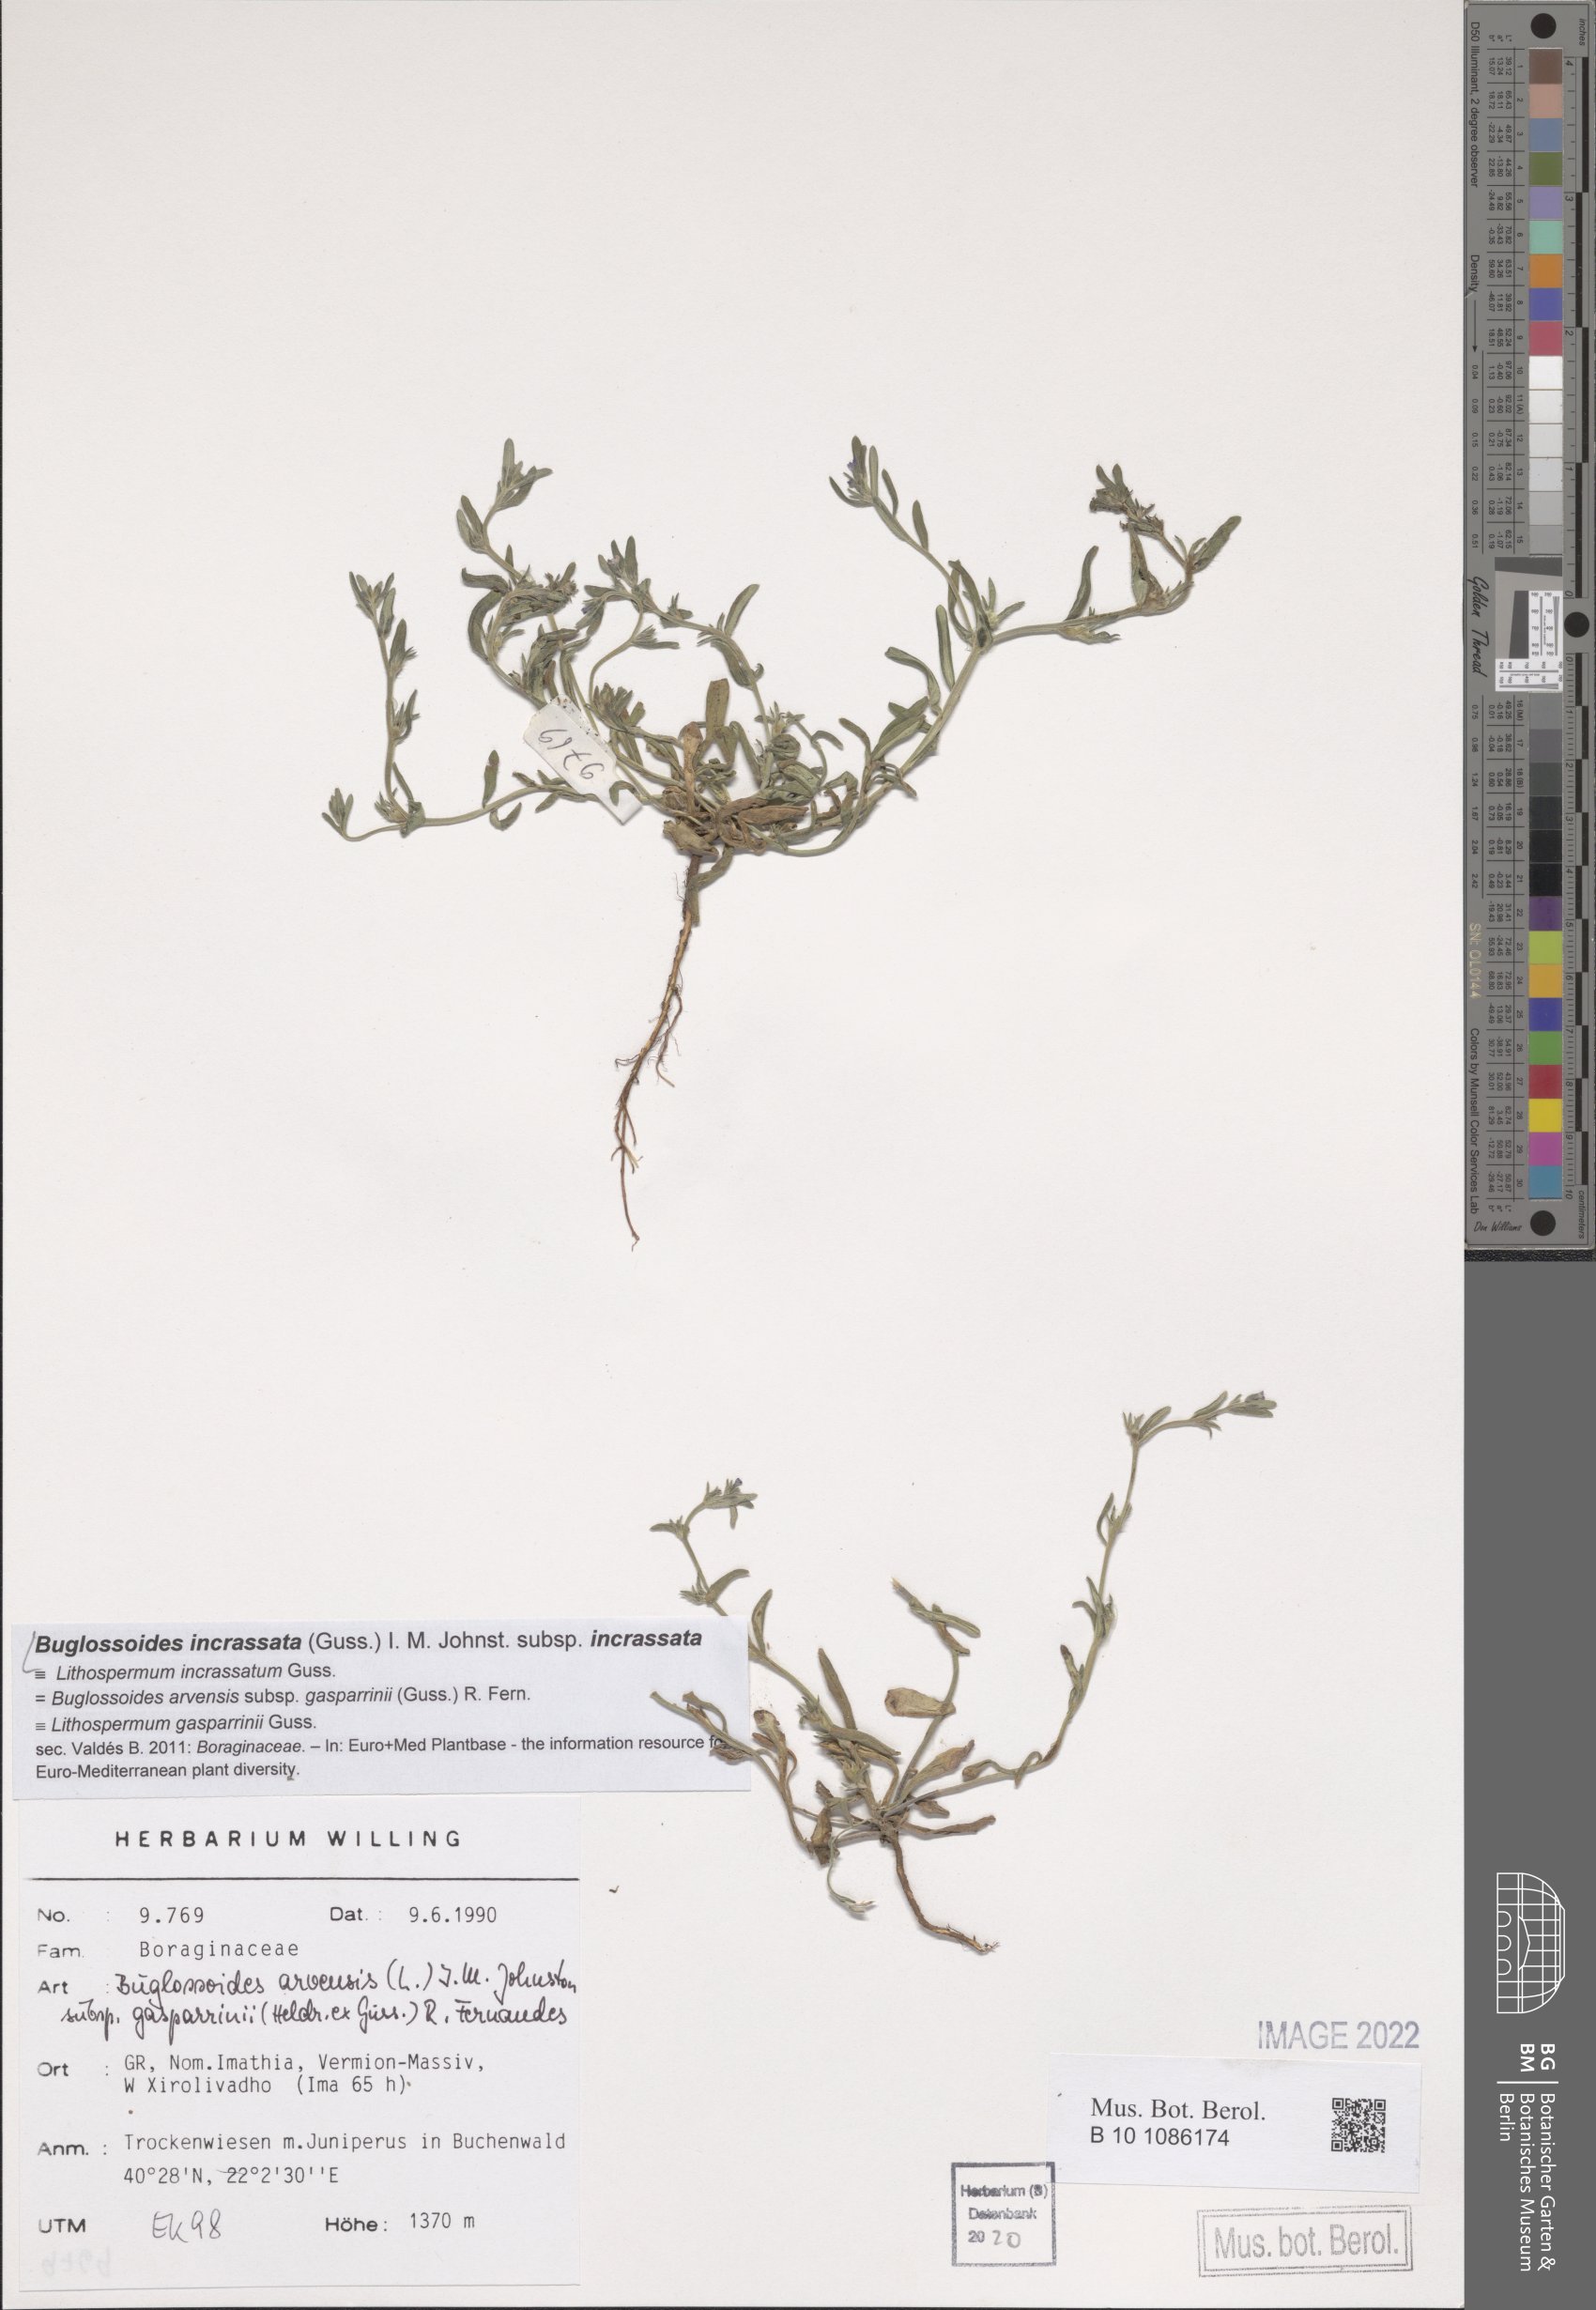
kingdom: Plantae
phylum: Tracheophyta
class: Magnoliopsida
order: Boraginales
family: Boraginaceae
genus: Buglossoides
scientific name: Buglossoides incrassata
